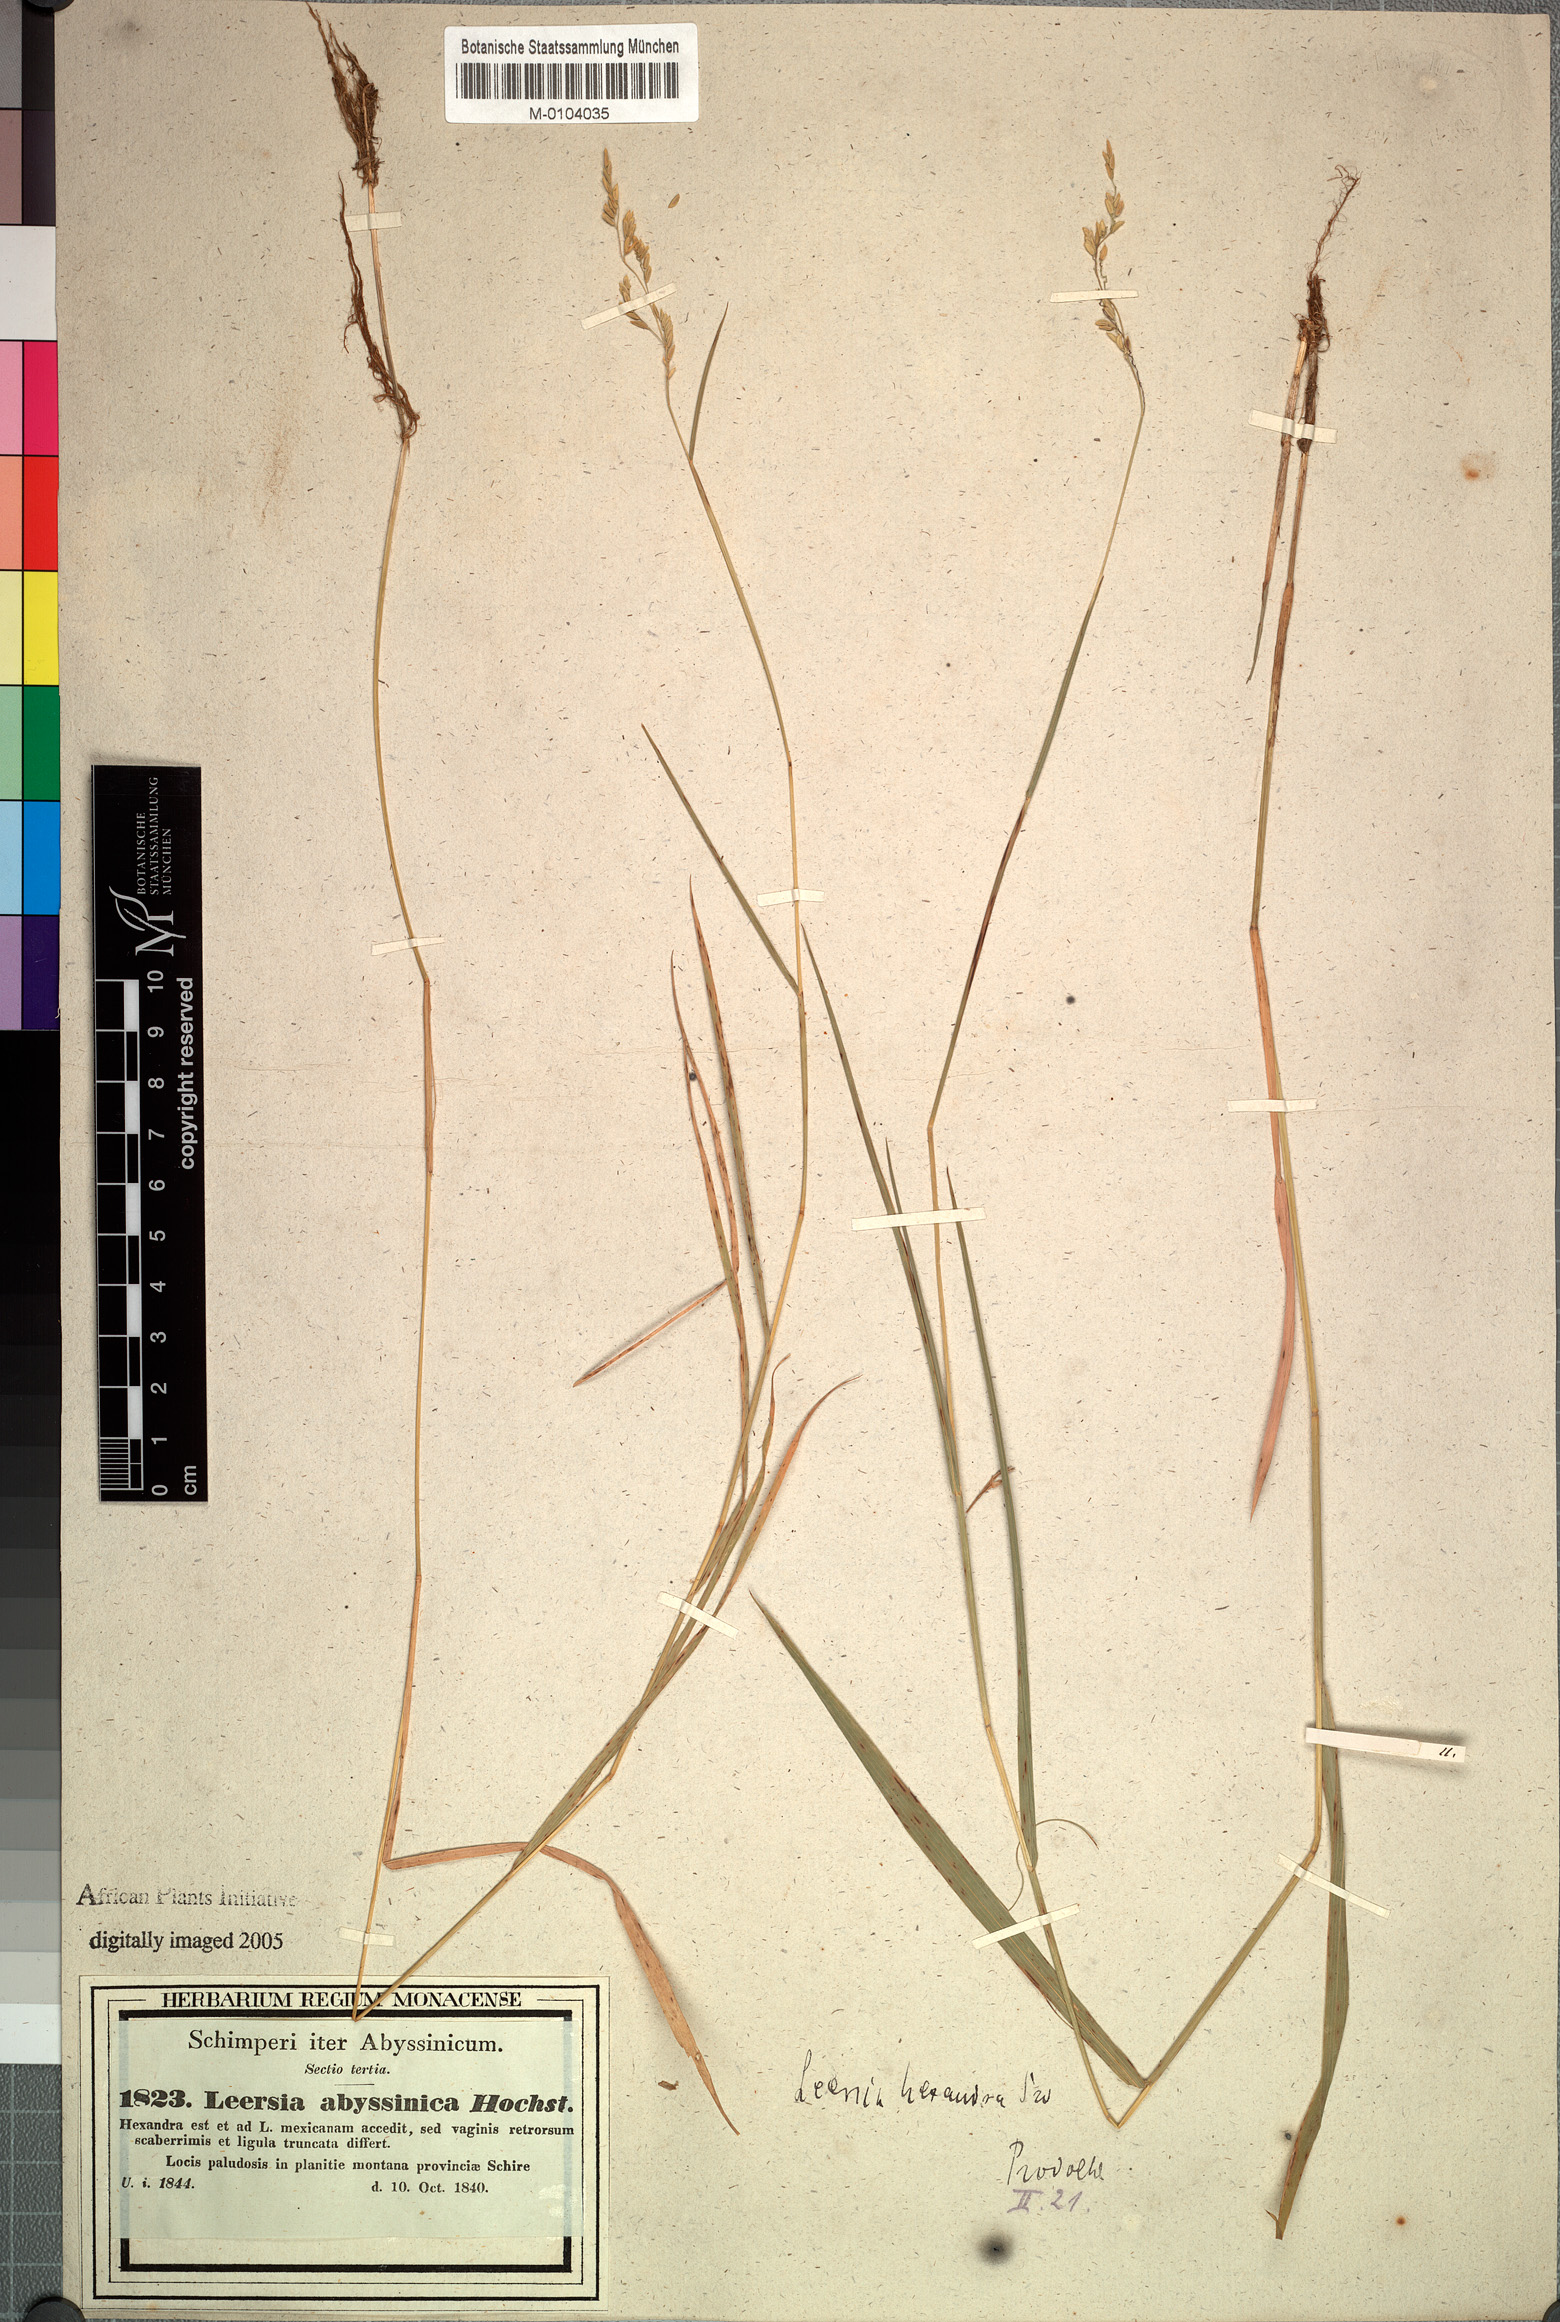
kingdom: Plantae
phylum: Tracheophyta
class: Liliopsida
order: Poales
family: Poaceae
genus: Leersia
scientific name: Leersia hexandra
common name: Southern cut grass
